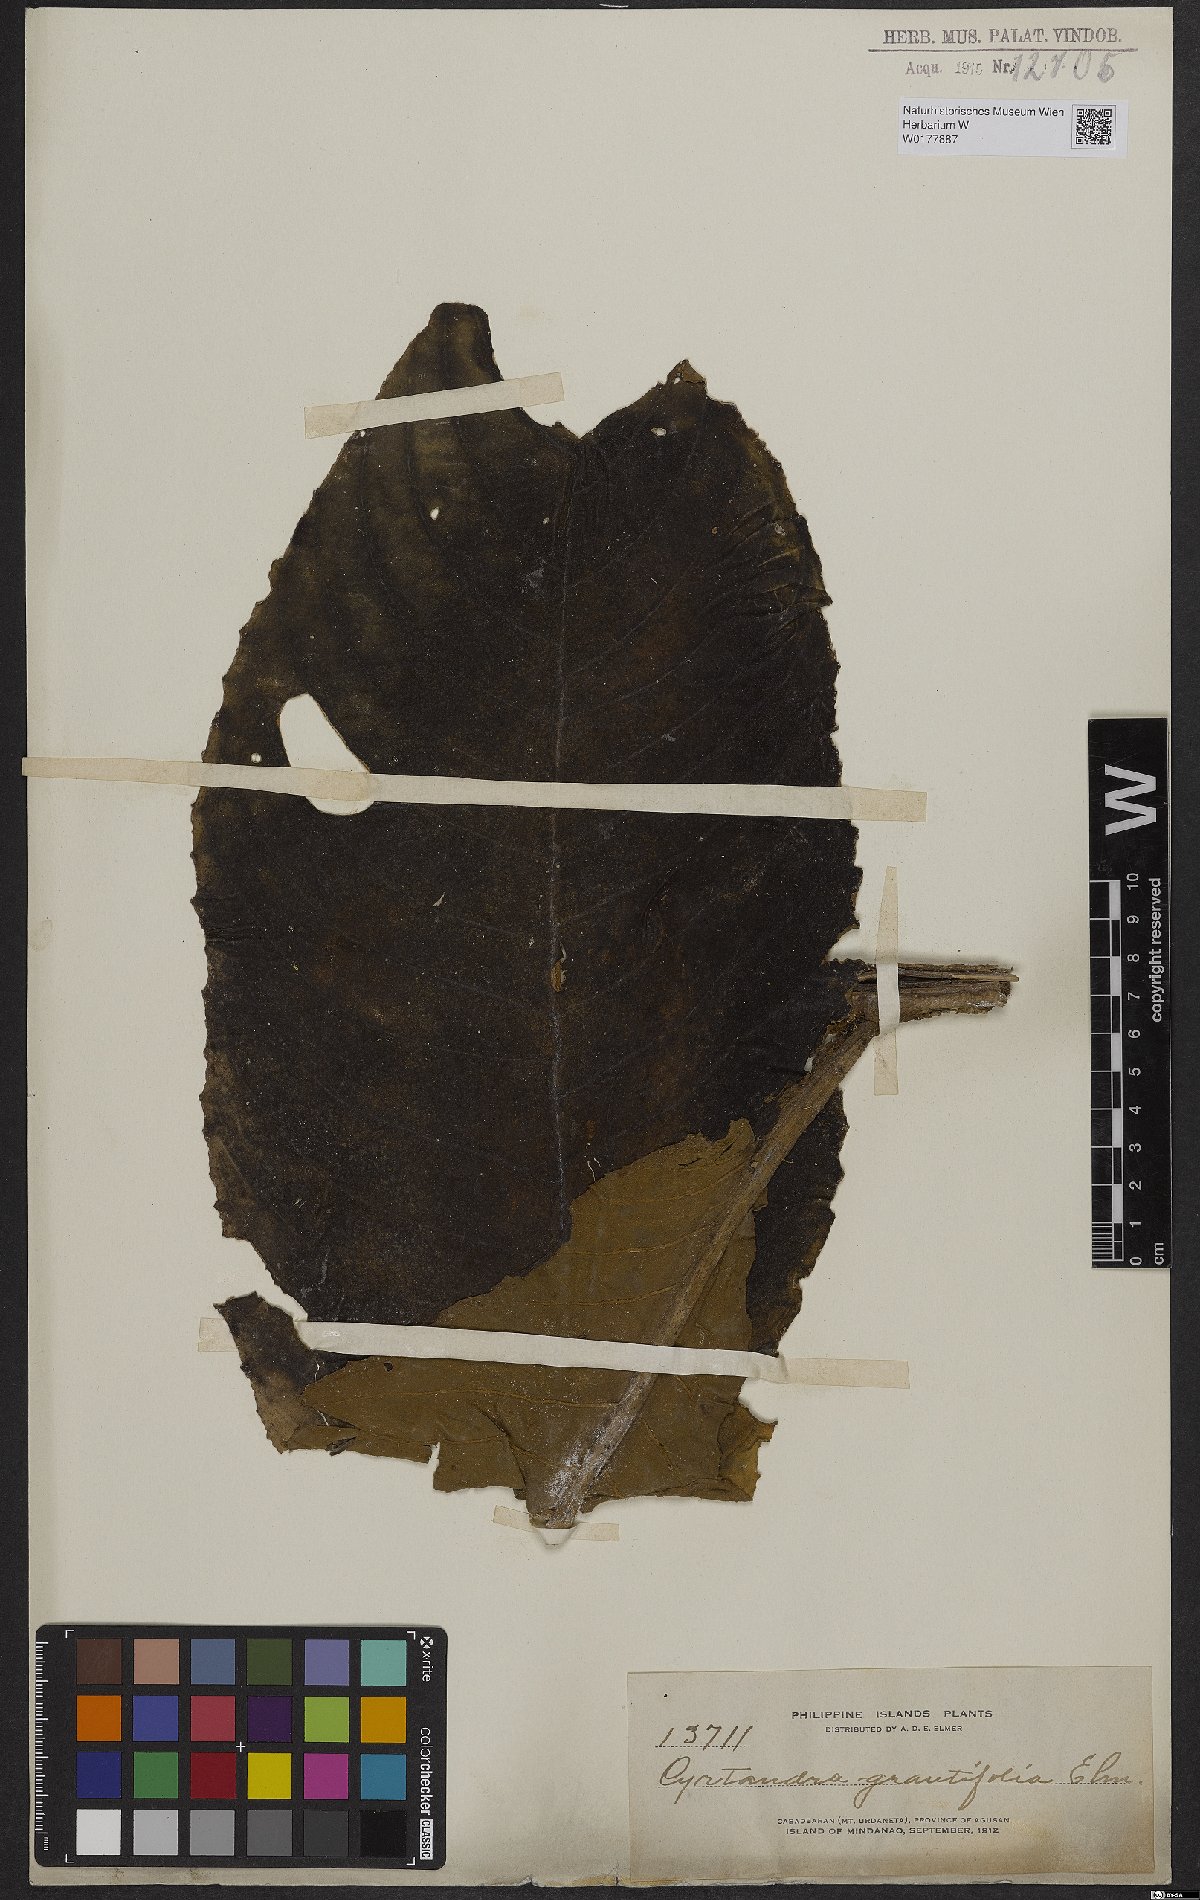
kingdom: Plantae
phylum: Tracheophyta
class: Magnoliopsida
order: Lamiales
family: Gesneriaceae
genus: Cyrtandra
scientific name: Cyrtandra grandifolia
